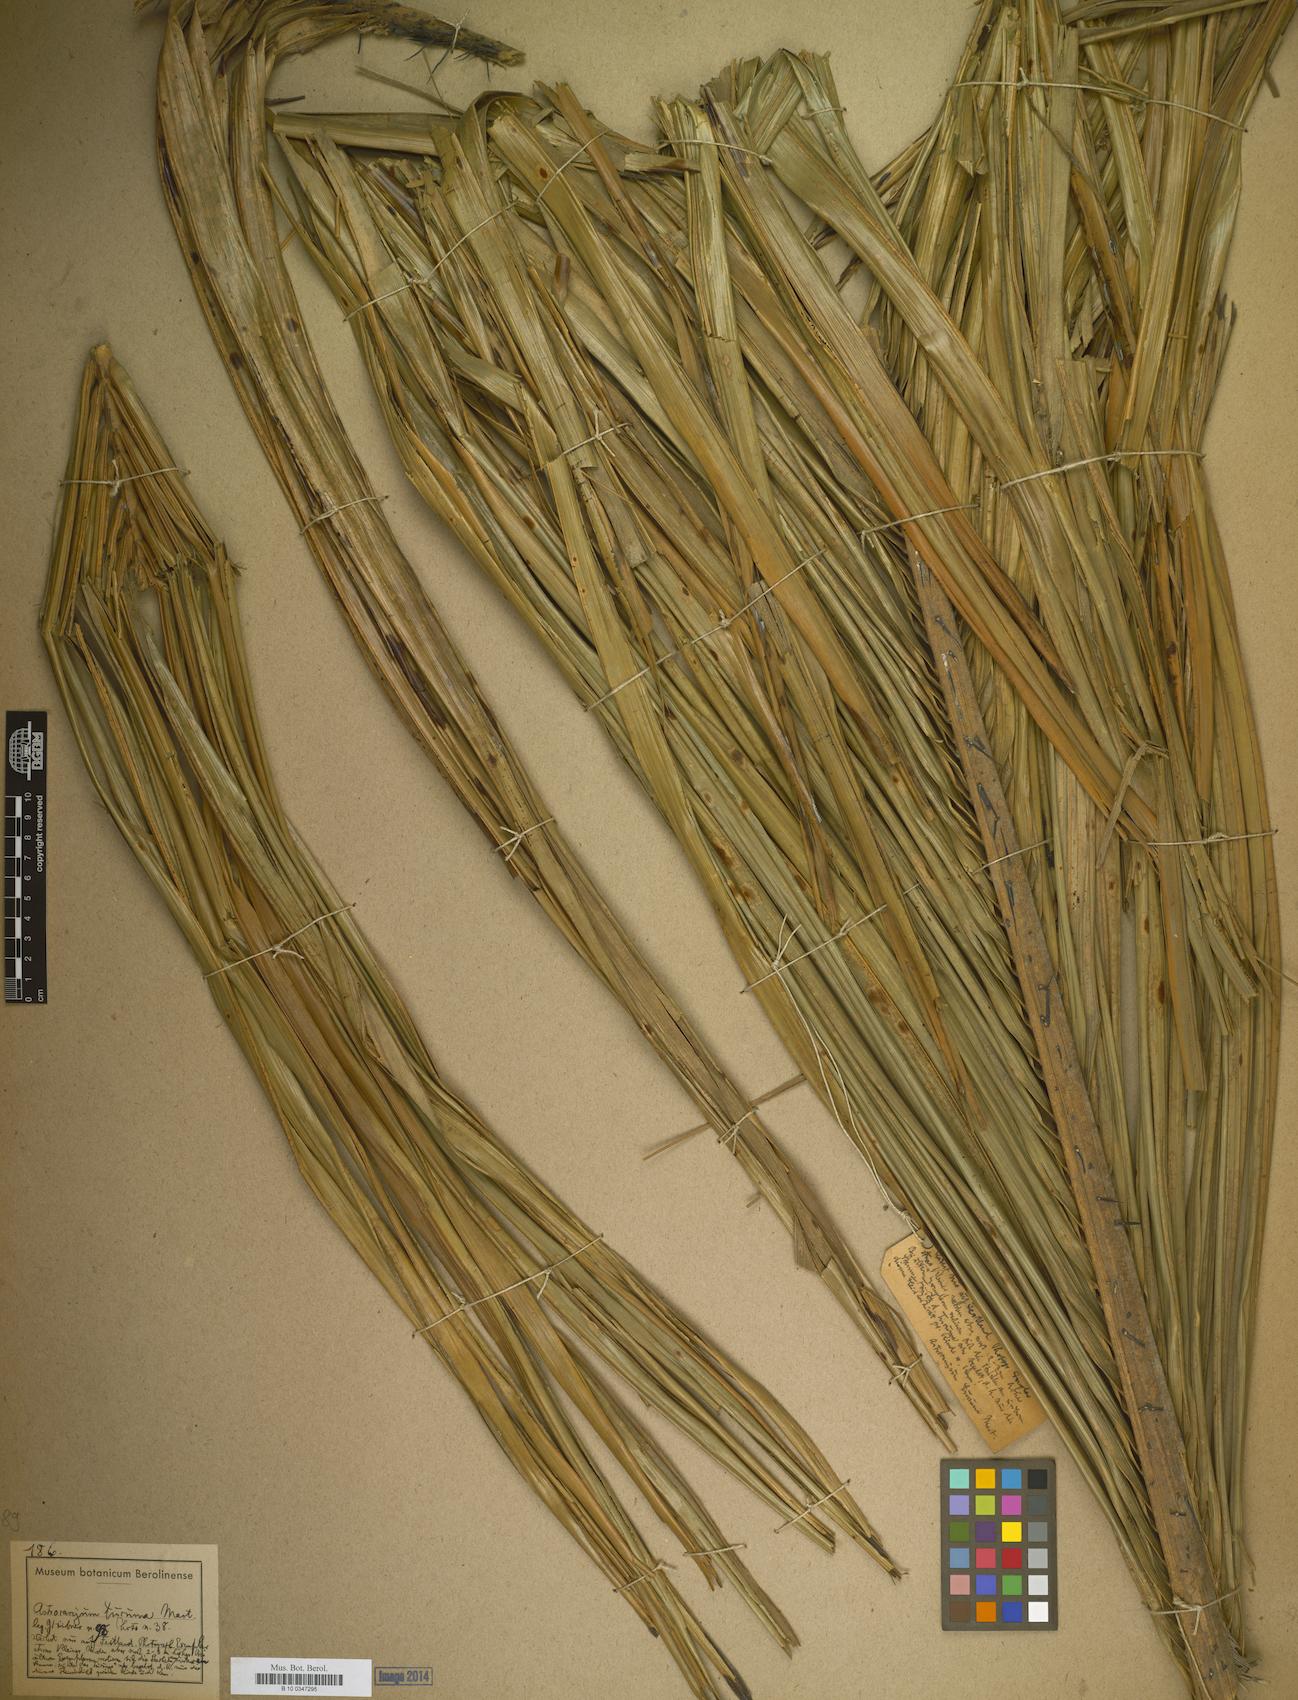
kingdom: Plantae
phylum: Tracheophyta
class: Liliopsida
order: Arecales
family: Arecaceae
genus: Astrocaryum
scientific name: Astrocaryum
